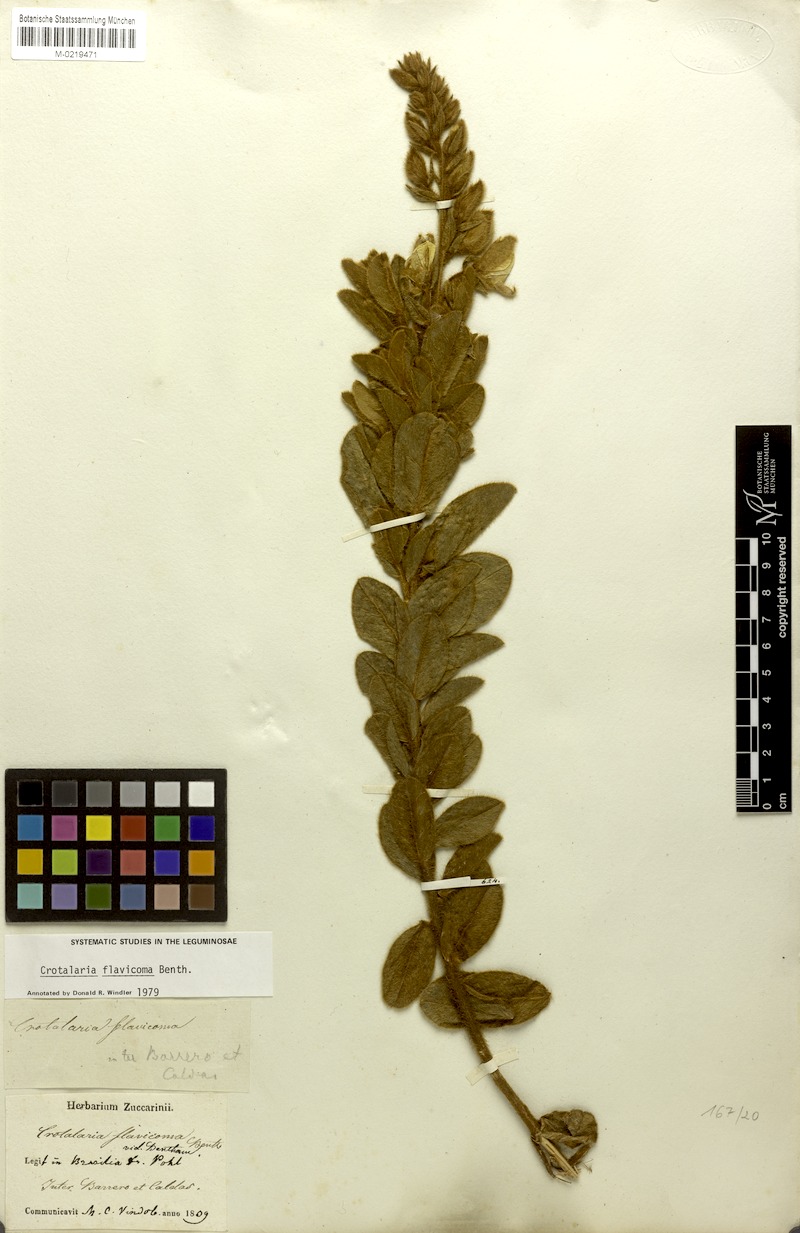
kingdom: Plantae
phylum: Tracheophyta
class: Magnoliopsida
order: Fabales
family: Fabaceae
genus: Crotalaria
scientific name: Crotalaria flavicoma
